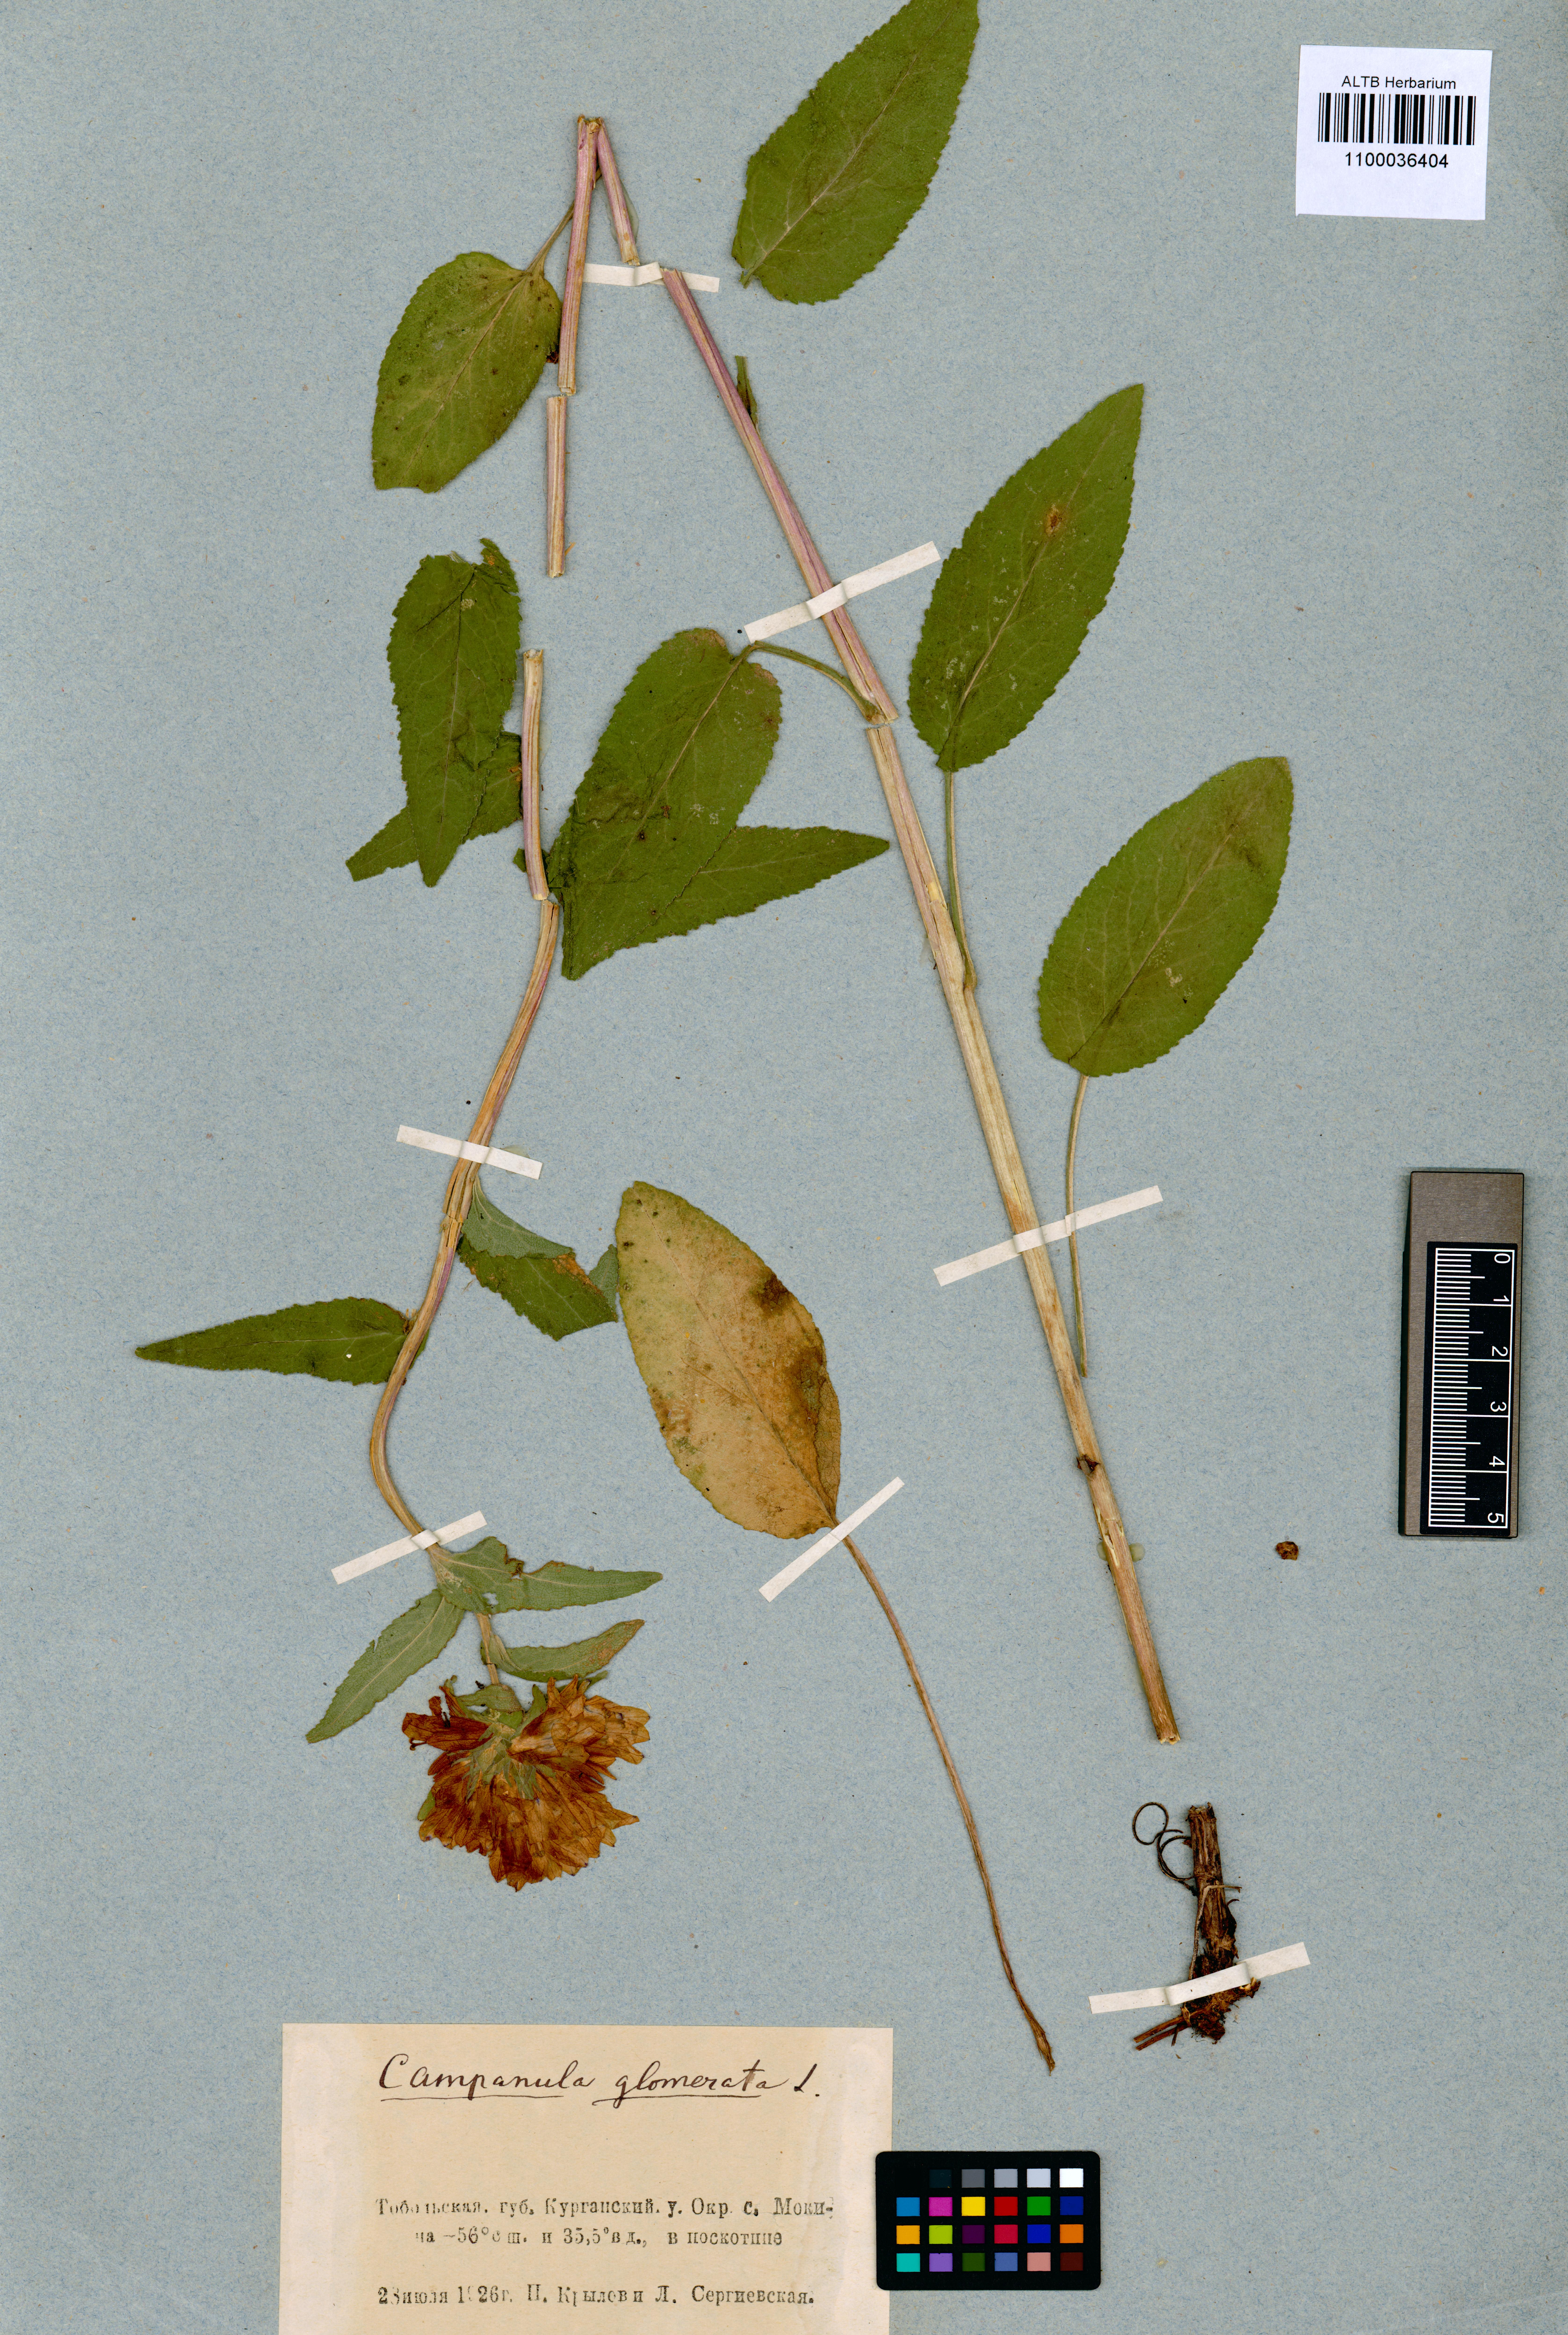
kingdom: Plantae
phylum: Tracheophyta
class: Magnoliopsida
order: Asterales
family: Campanulaceae
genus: Campanula
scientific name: Campanula glomerata
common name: Clustered bellflower
